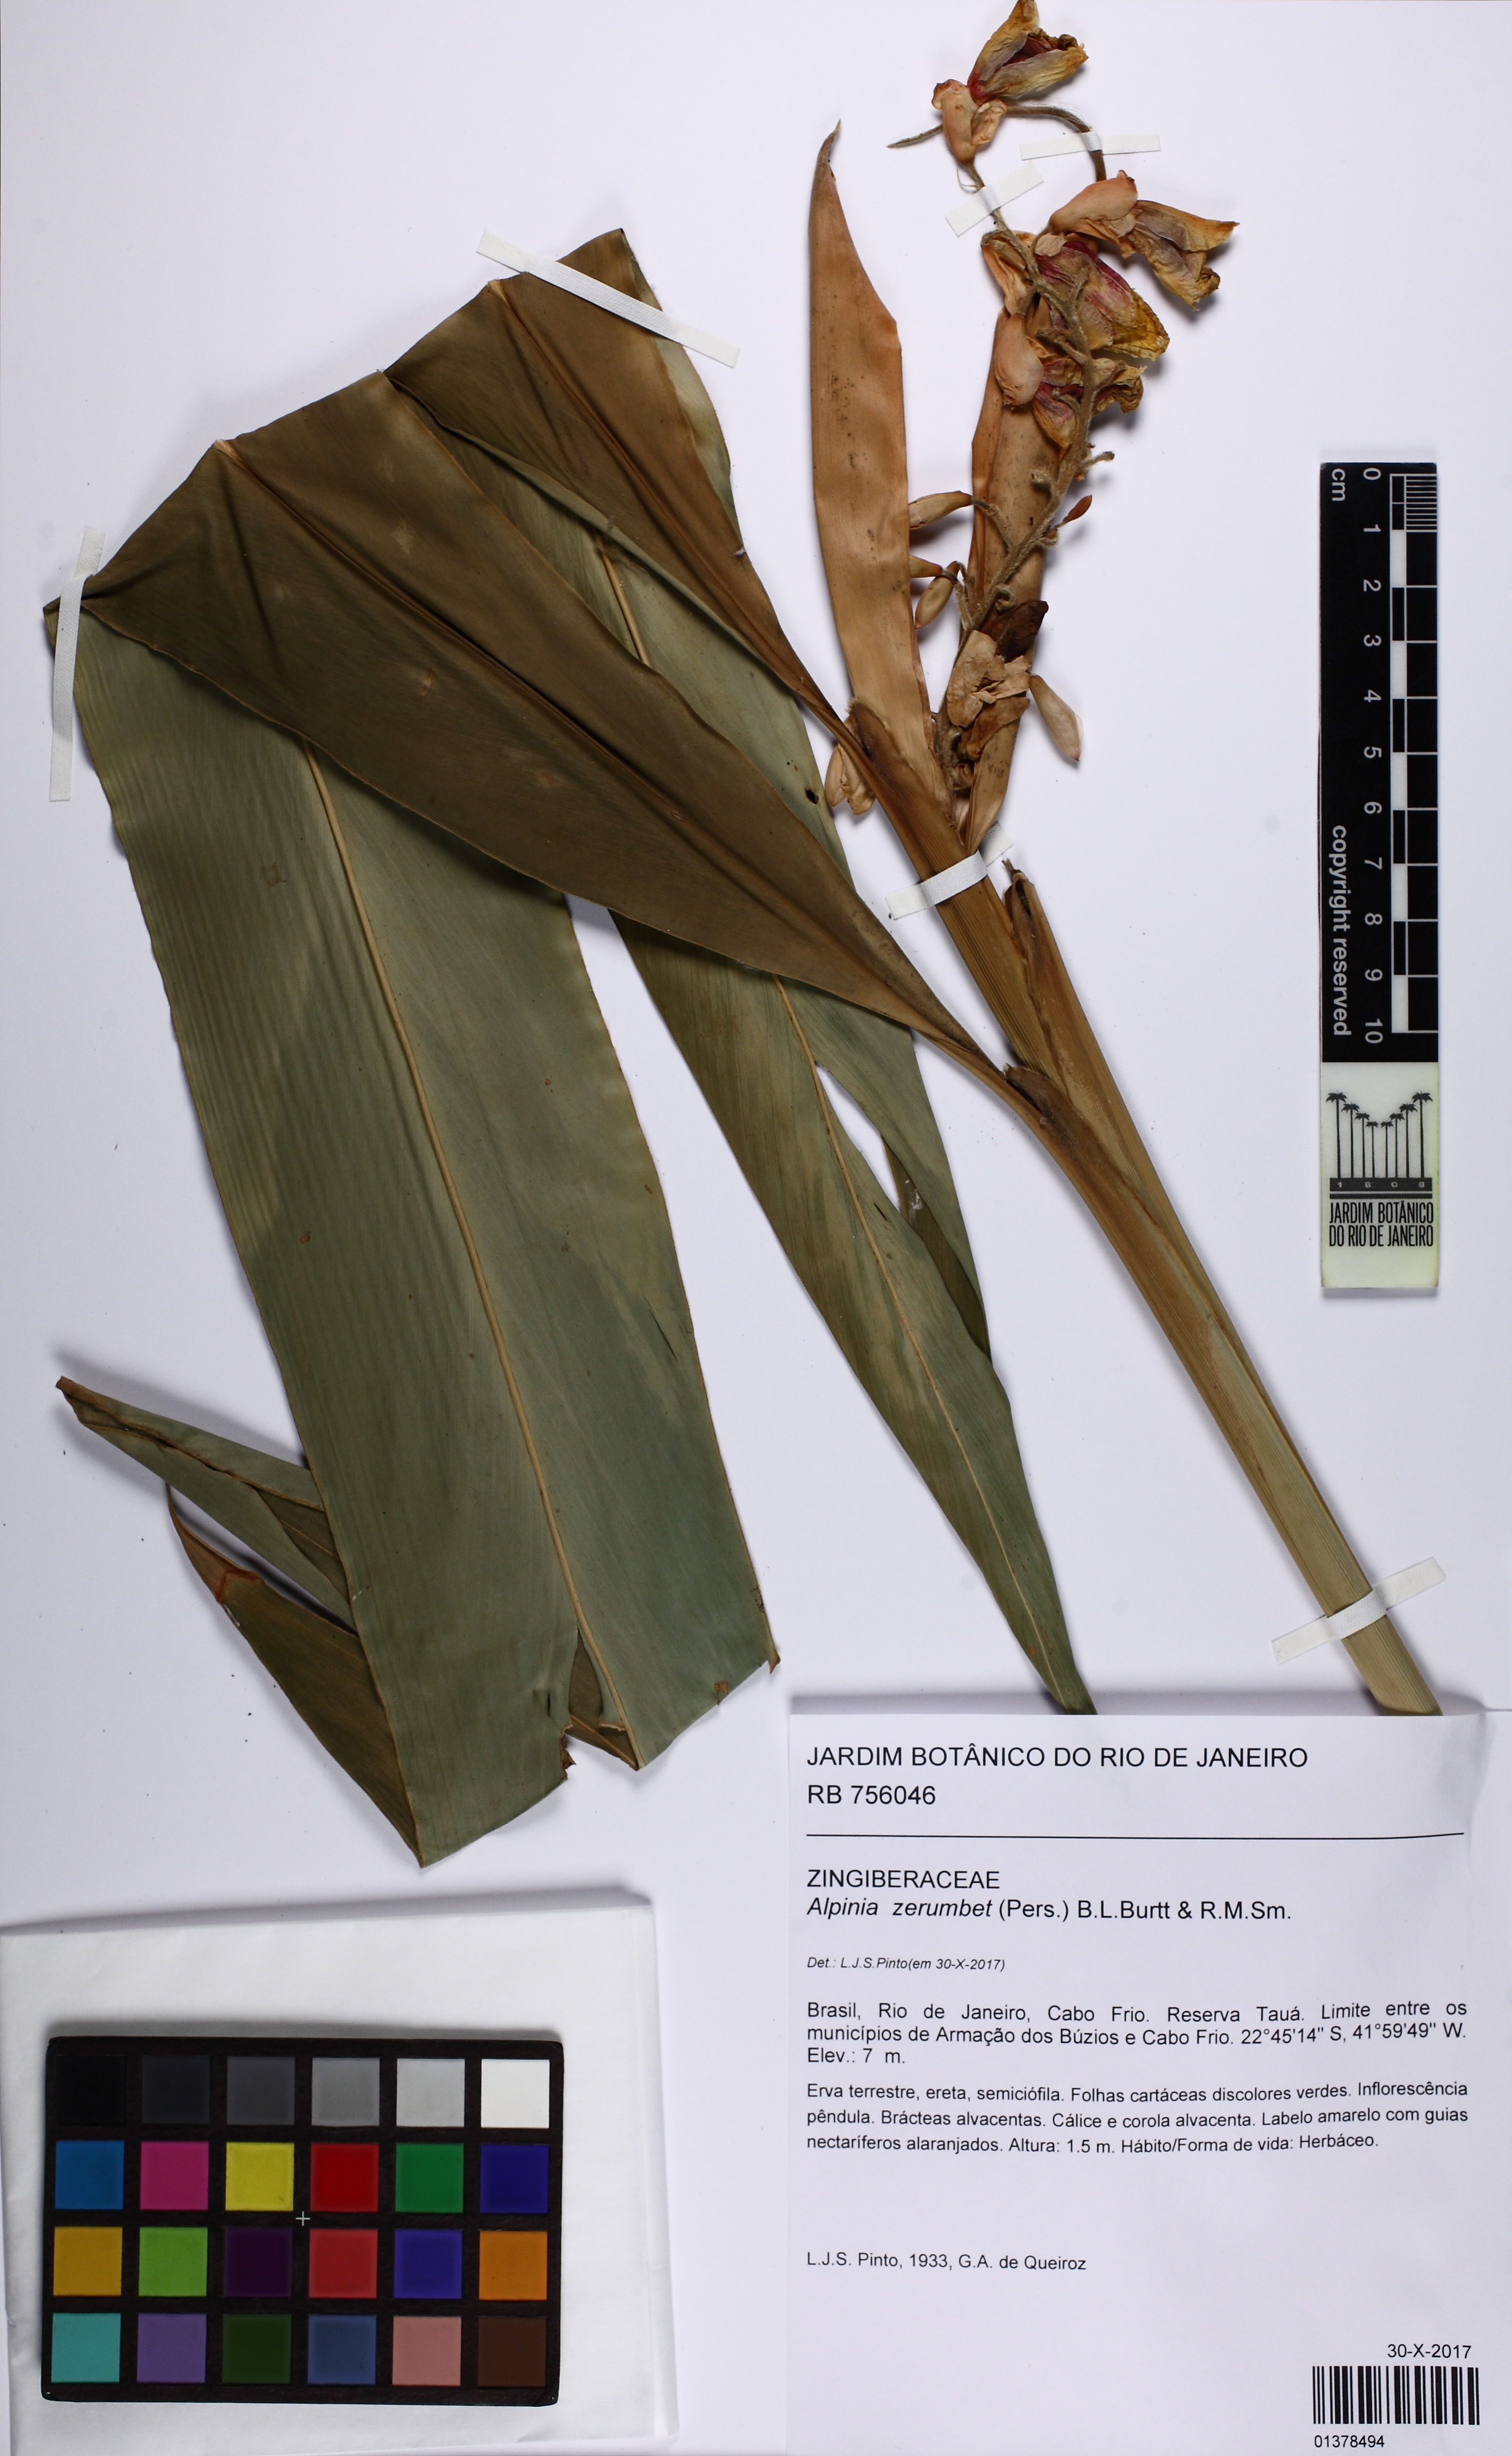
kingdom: Plantae
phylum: Tracheophyta
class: Liliopsida
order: Zingiberales
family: Zingiberaceae
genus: Alpinia
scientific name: Alpinia zerumbet
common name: Shellplant
